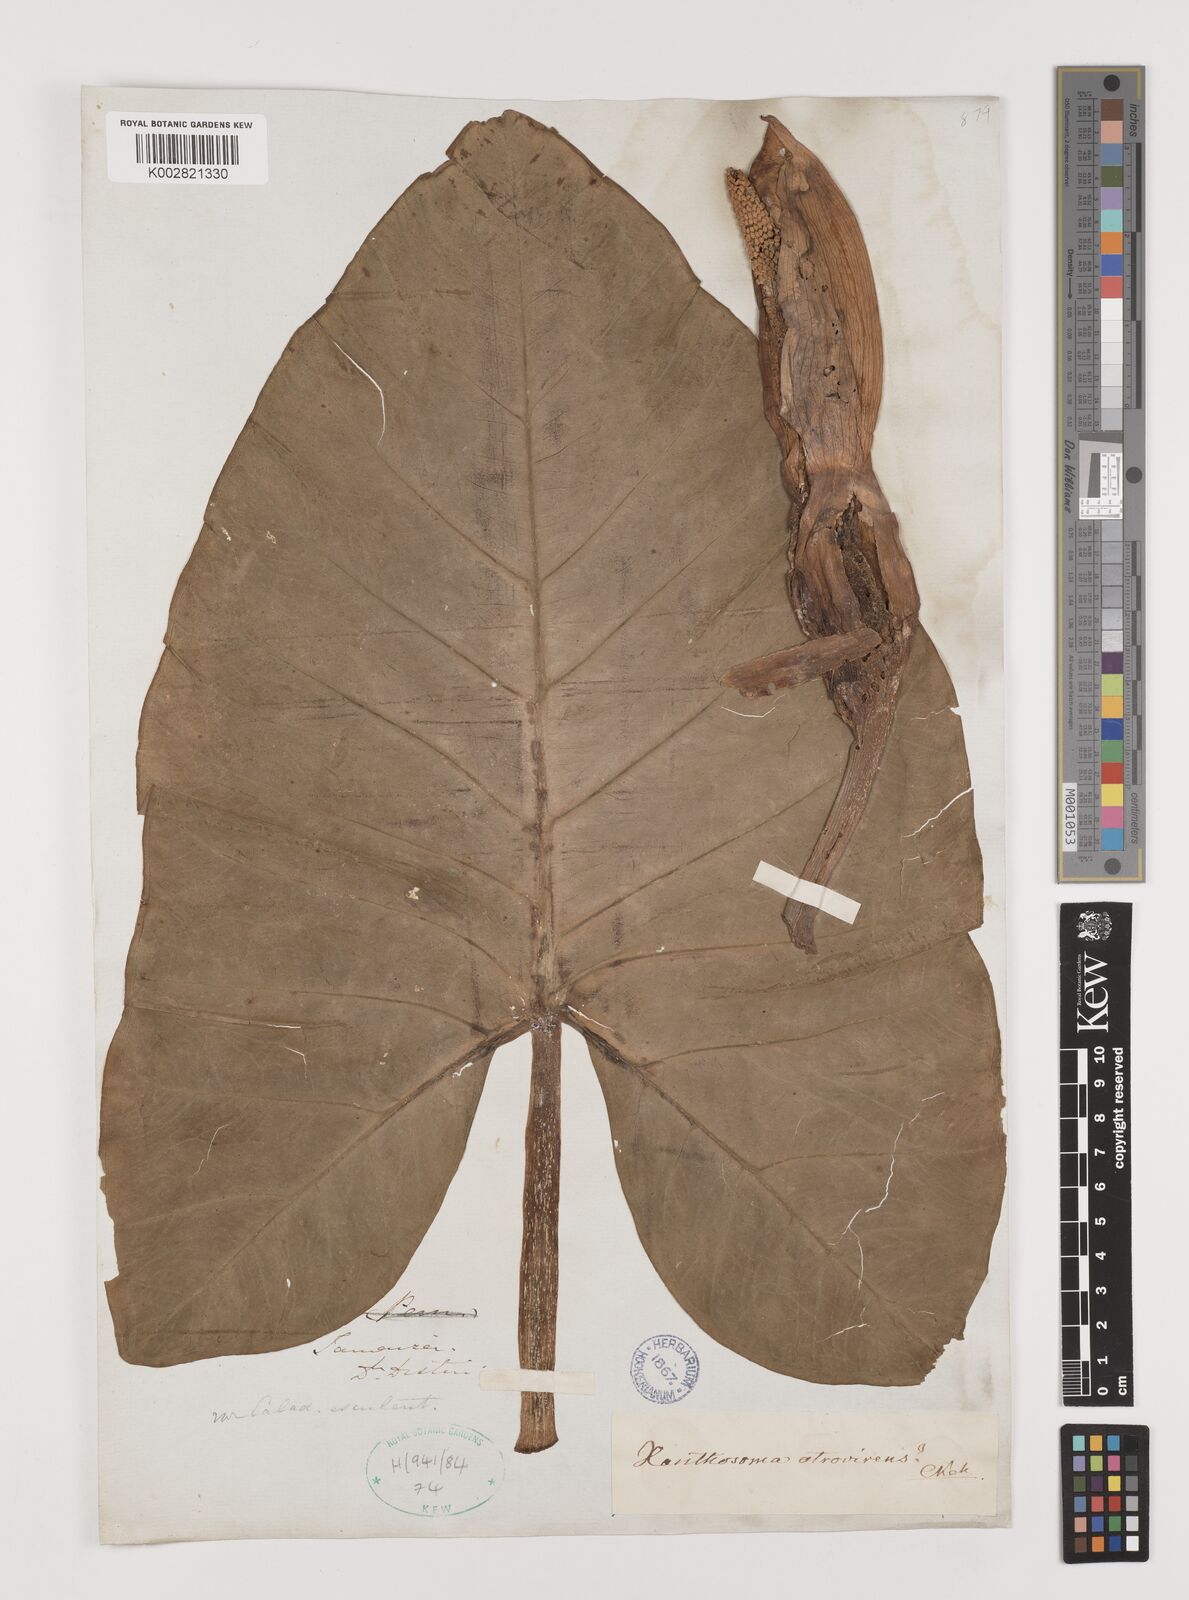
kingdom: Plantae
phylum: Tracheophyta
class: Liliopsida
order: Alismatales
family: Araceae
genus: Xanthosoma
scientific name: Xanthosoma sagittifolium
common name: Arrowleaf elephant's ear
